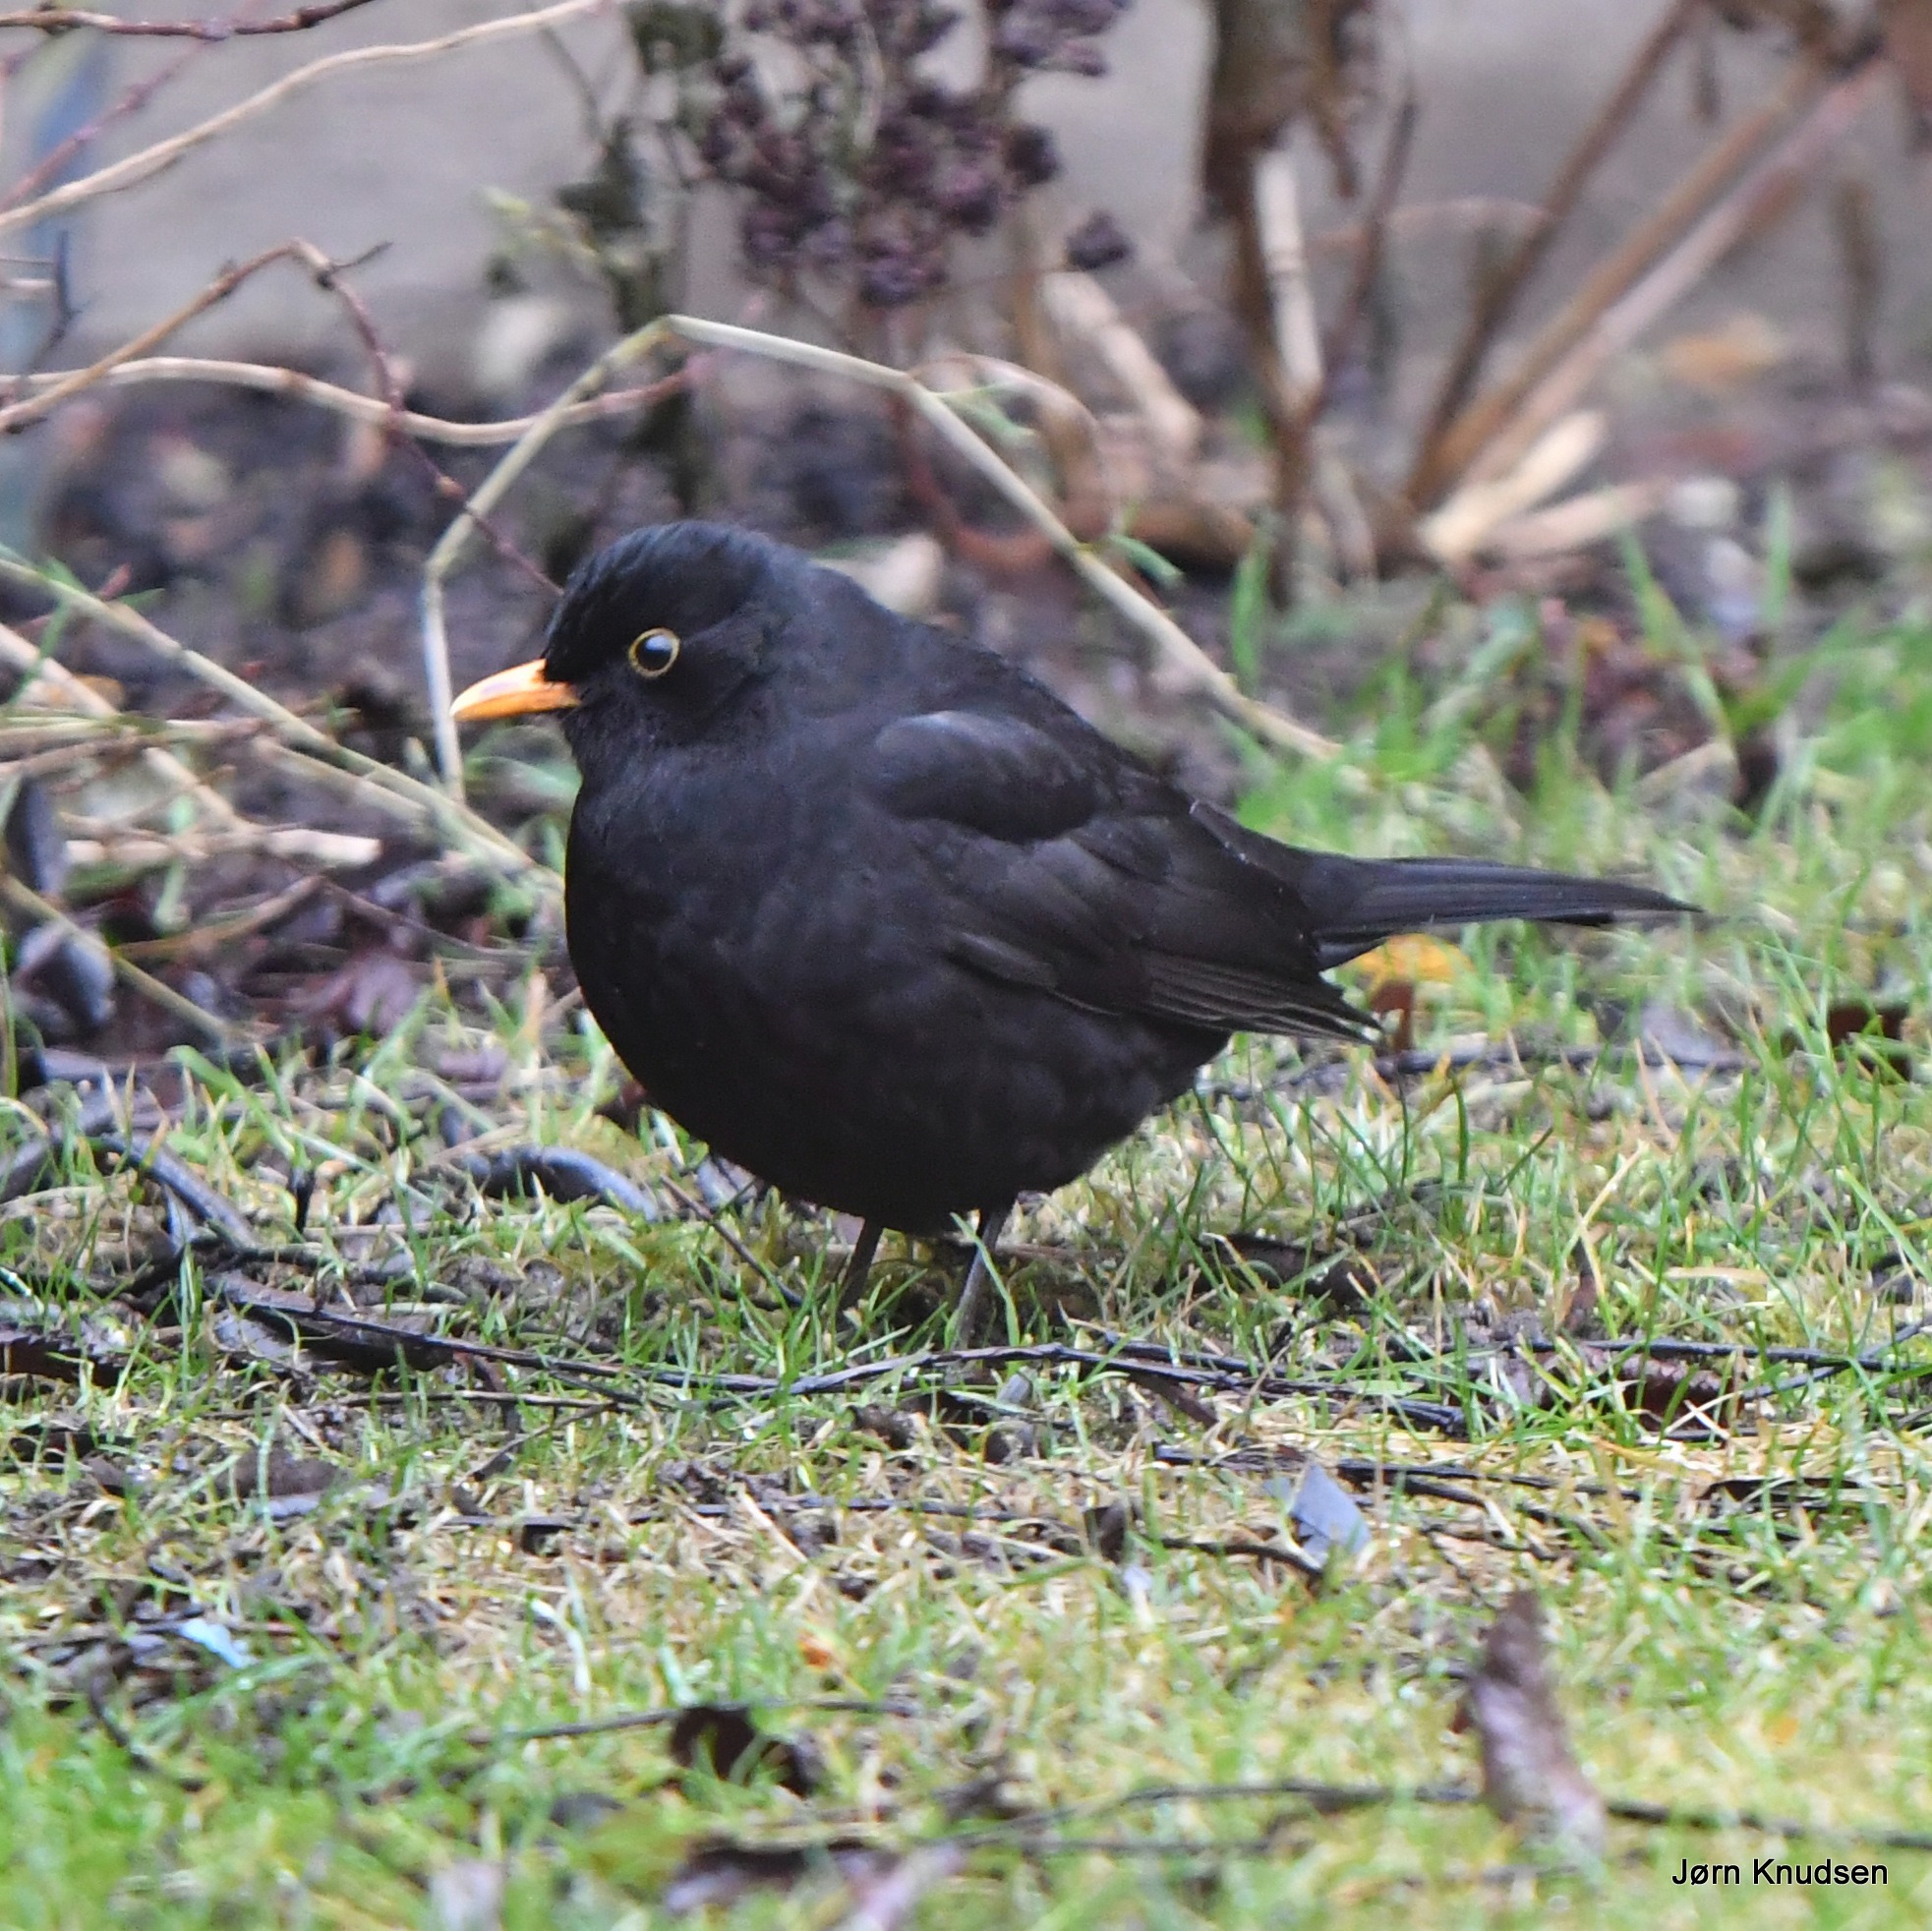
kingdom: Animalia
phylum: Chordata
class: Aves
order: Passeriformes
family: Turdidae
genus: Turdus
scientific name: Turdus merula
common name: Solsort
